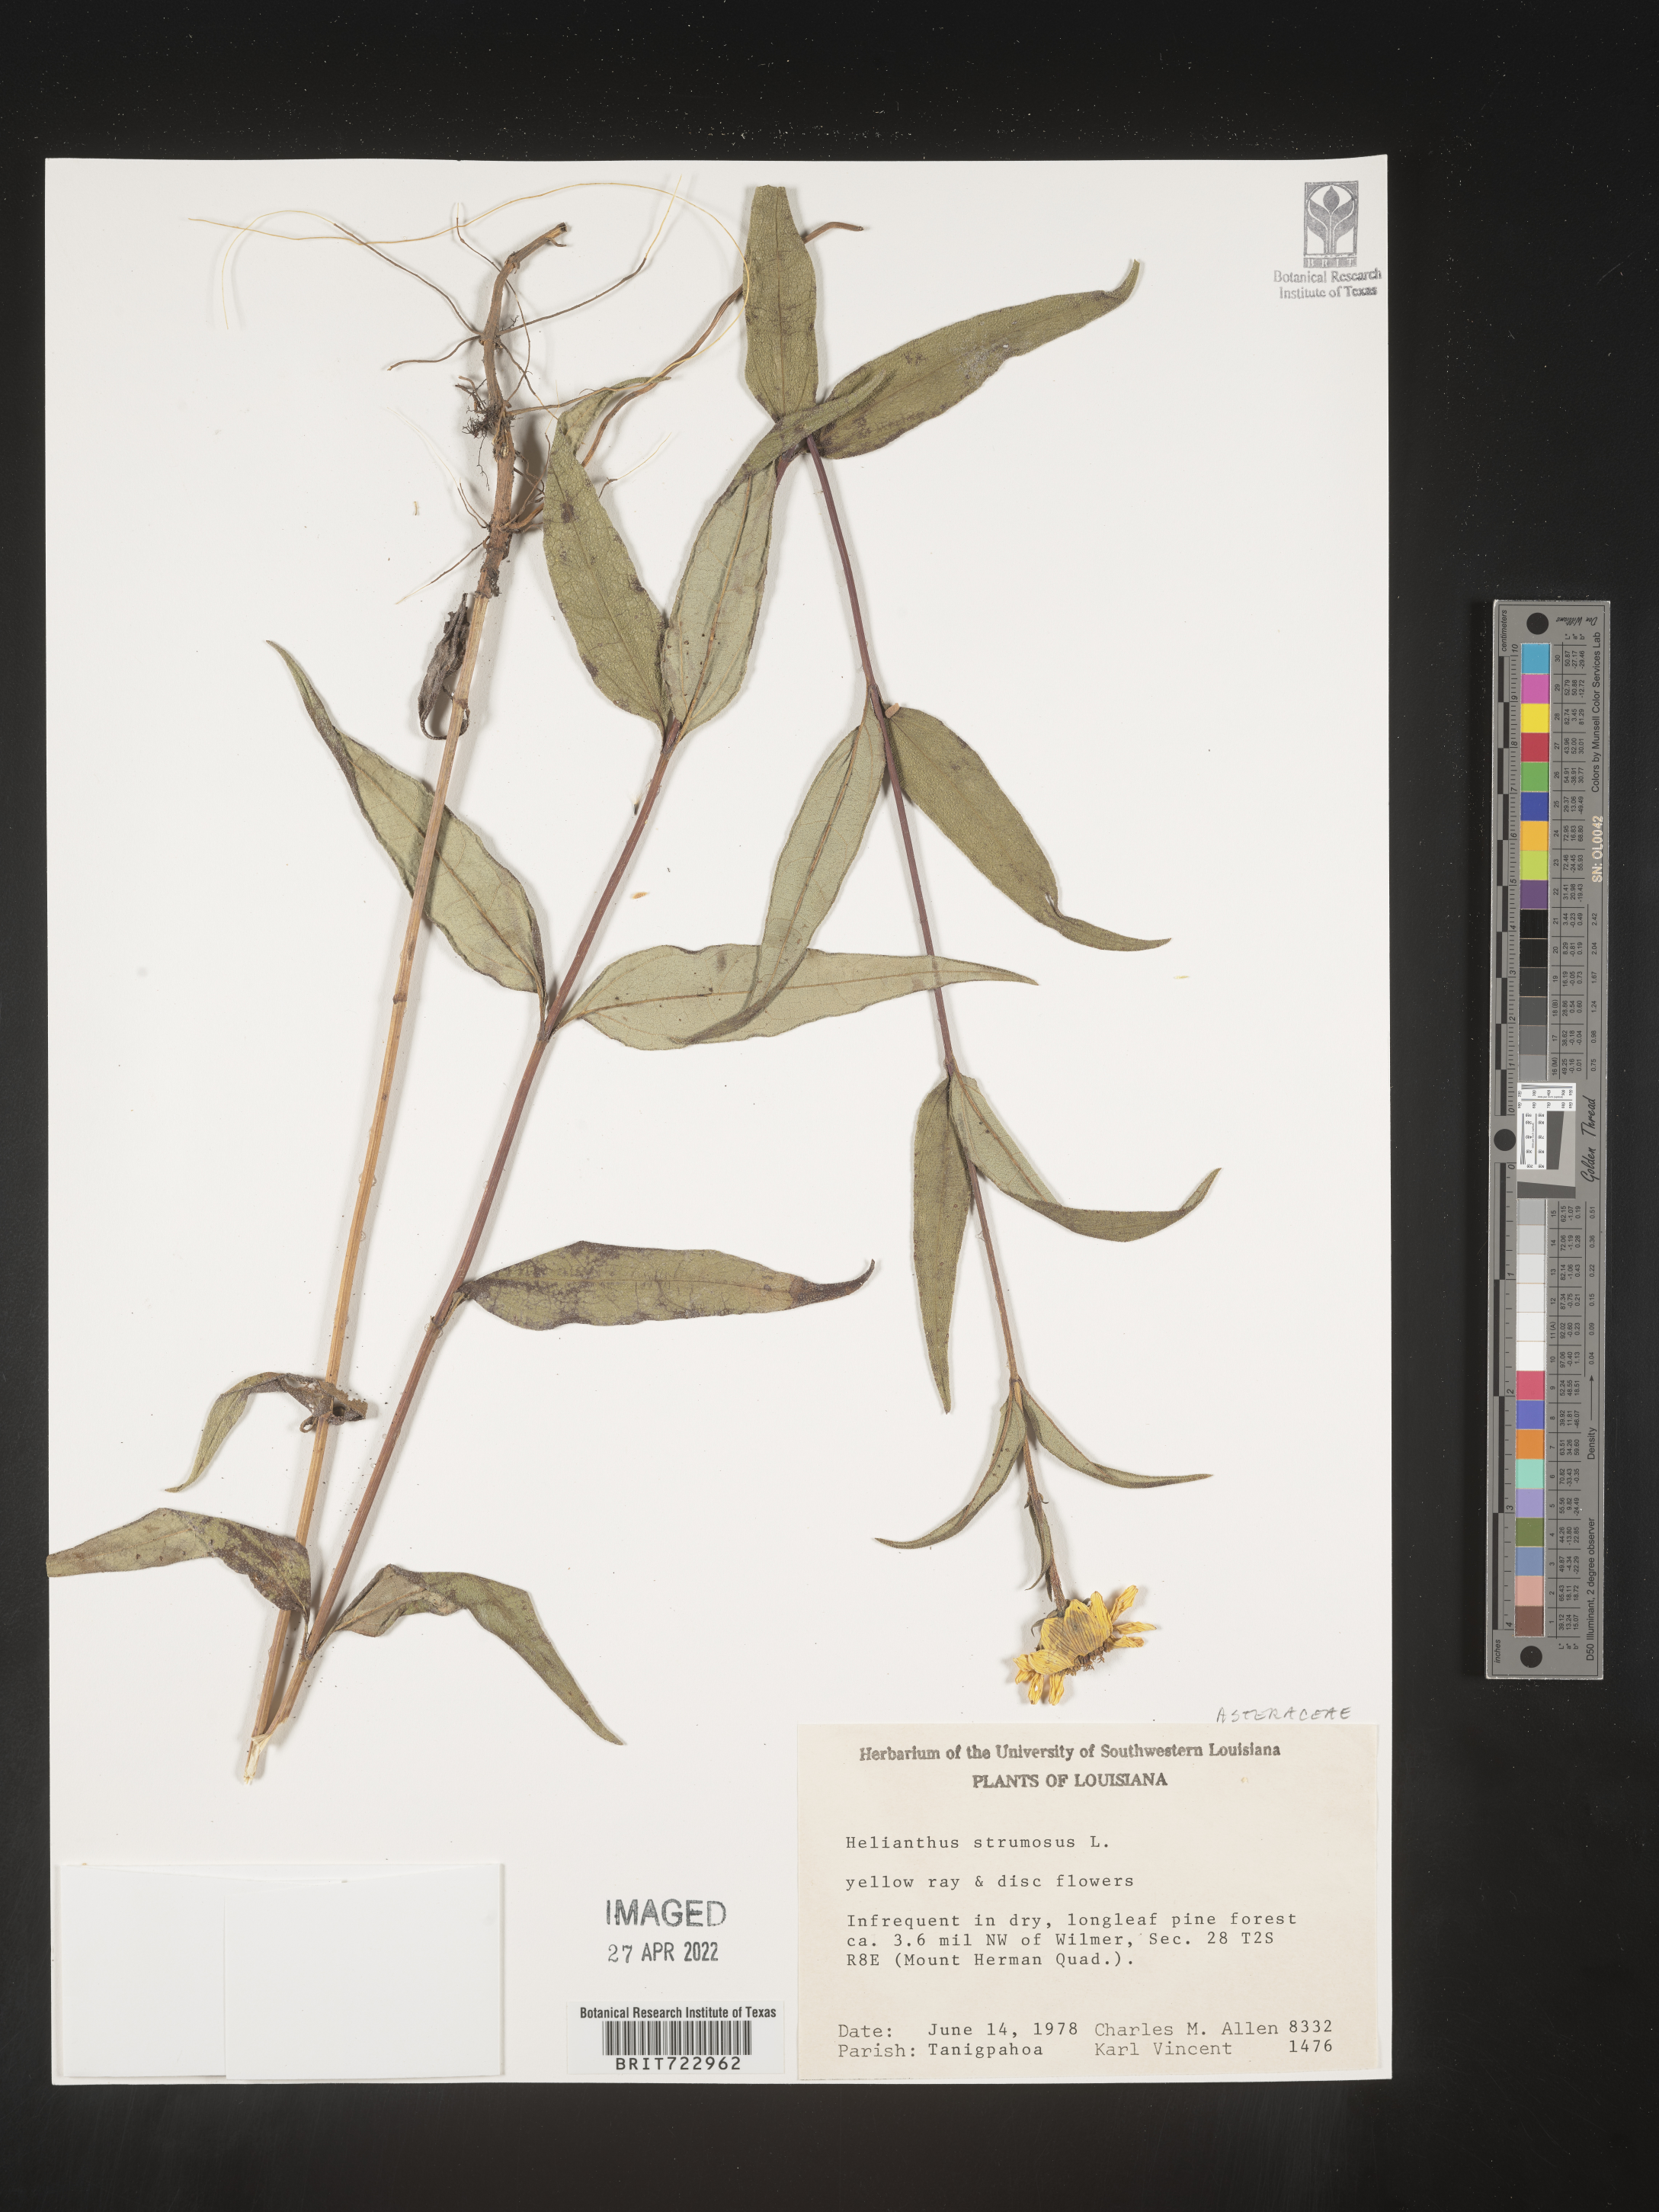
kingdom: Plantae
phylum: Tracheophyta
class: Magnoliopsida
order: Asterales
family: Asteraceae
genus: Helianthus
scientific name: Helianthus strumosus
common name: Pale-leaved sunflower
